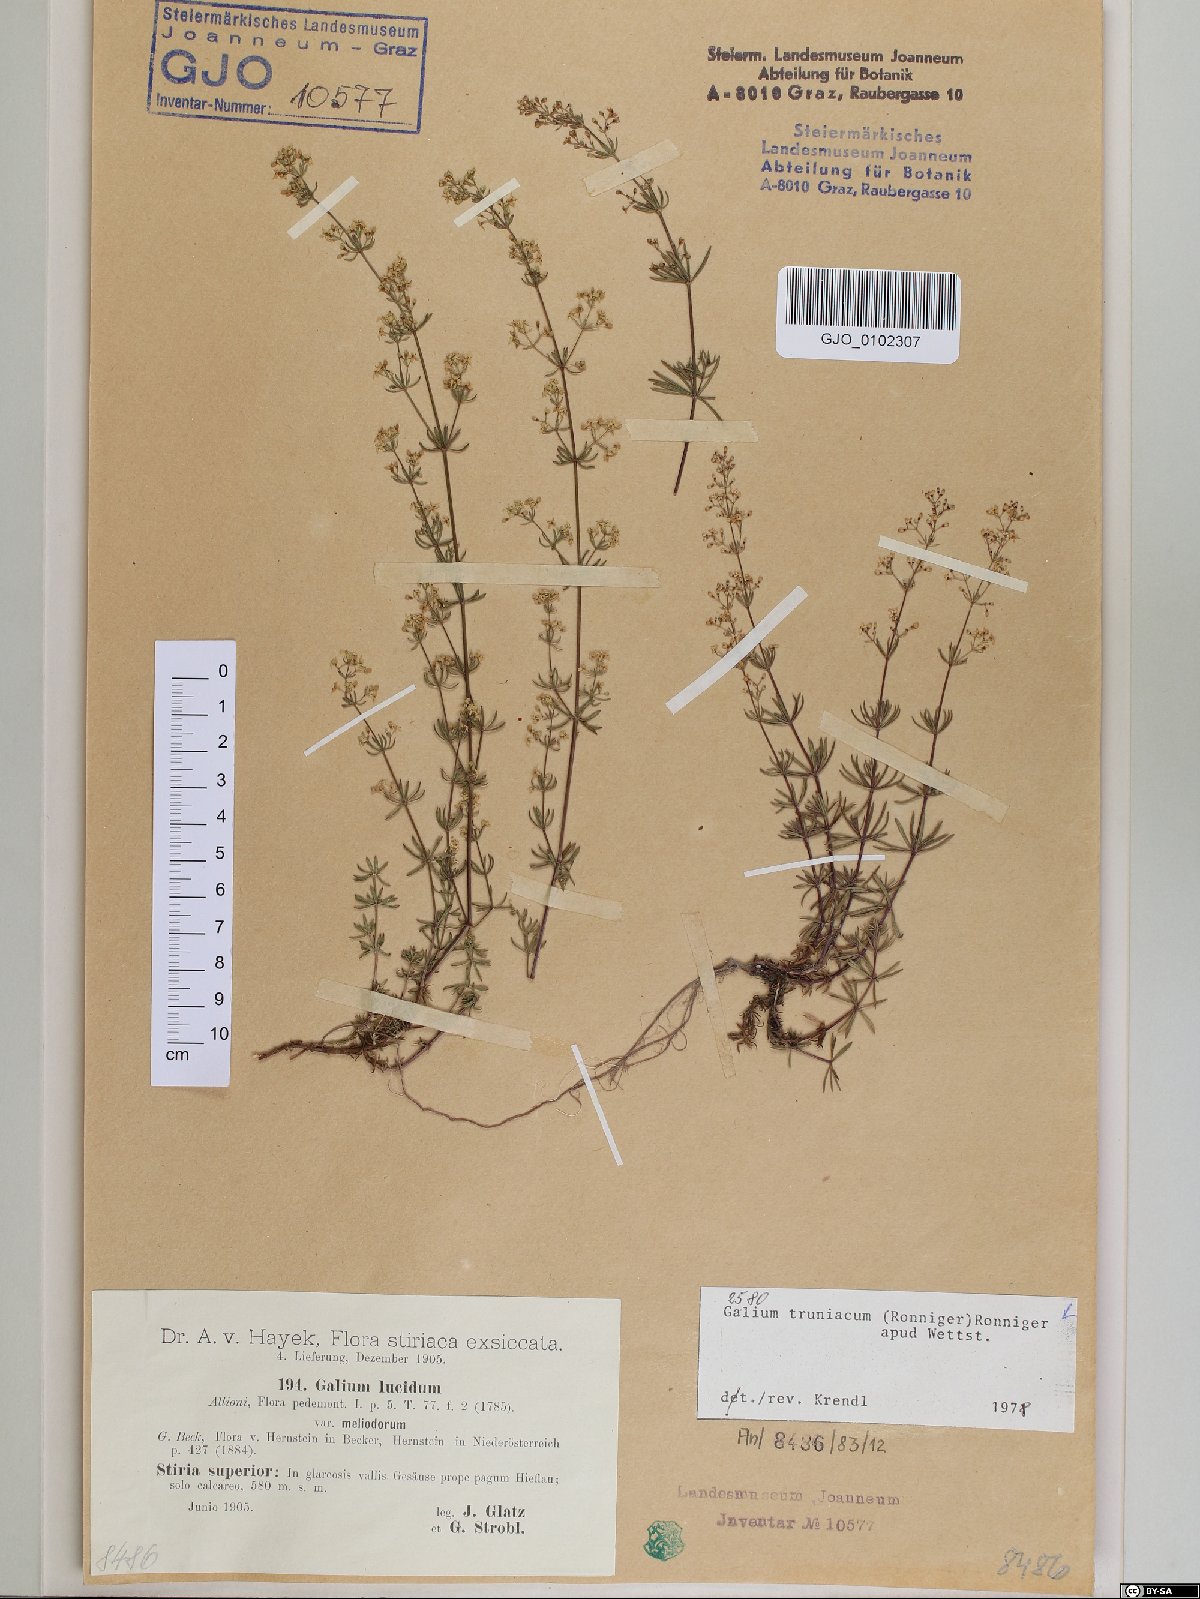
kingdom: Plantae
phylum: Tracheophyta
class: Magnoliopsida
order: Gentianales
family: Rubiaceae
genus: Galium
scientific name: Galium truniacum
